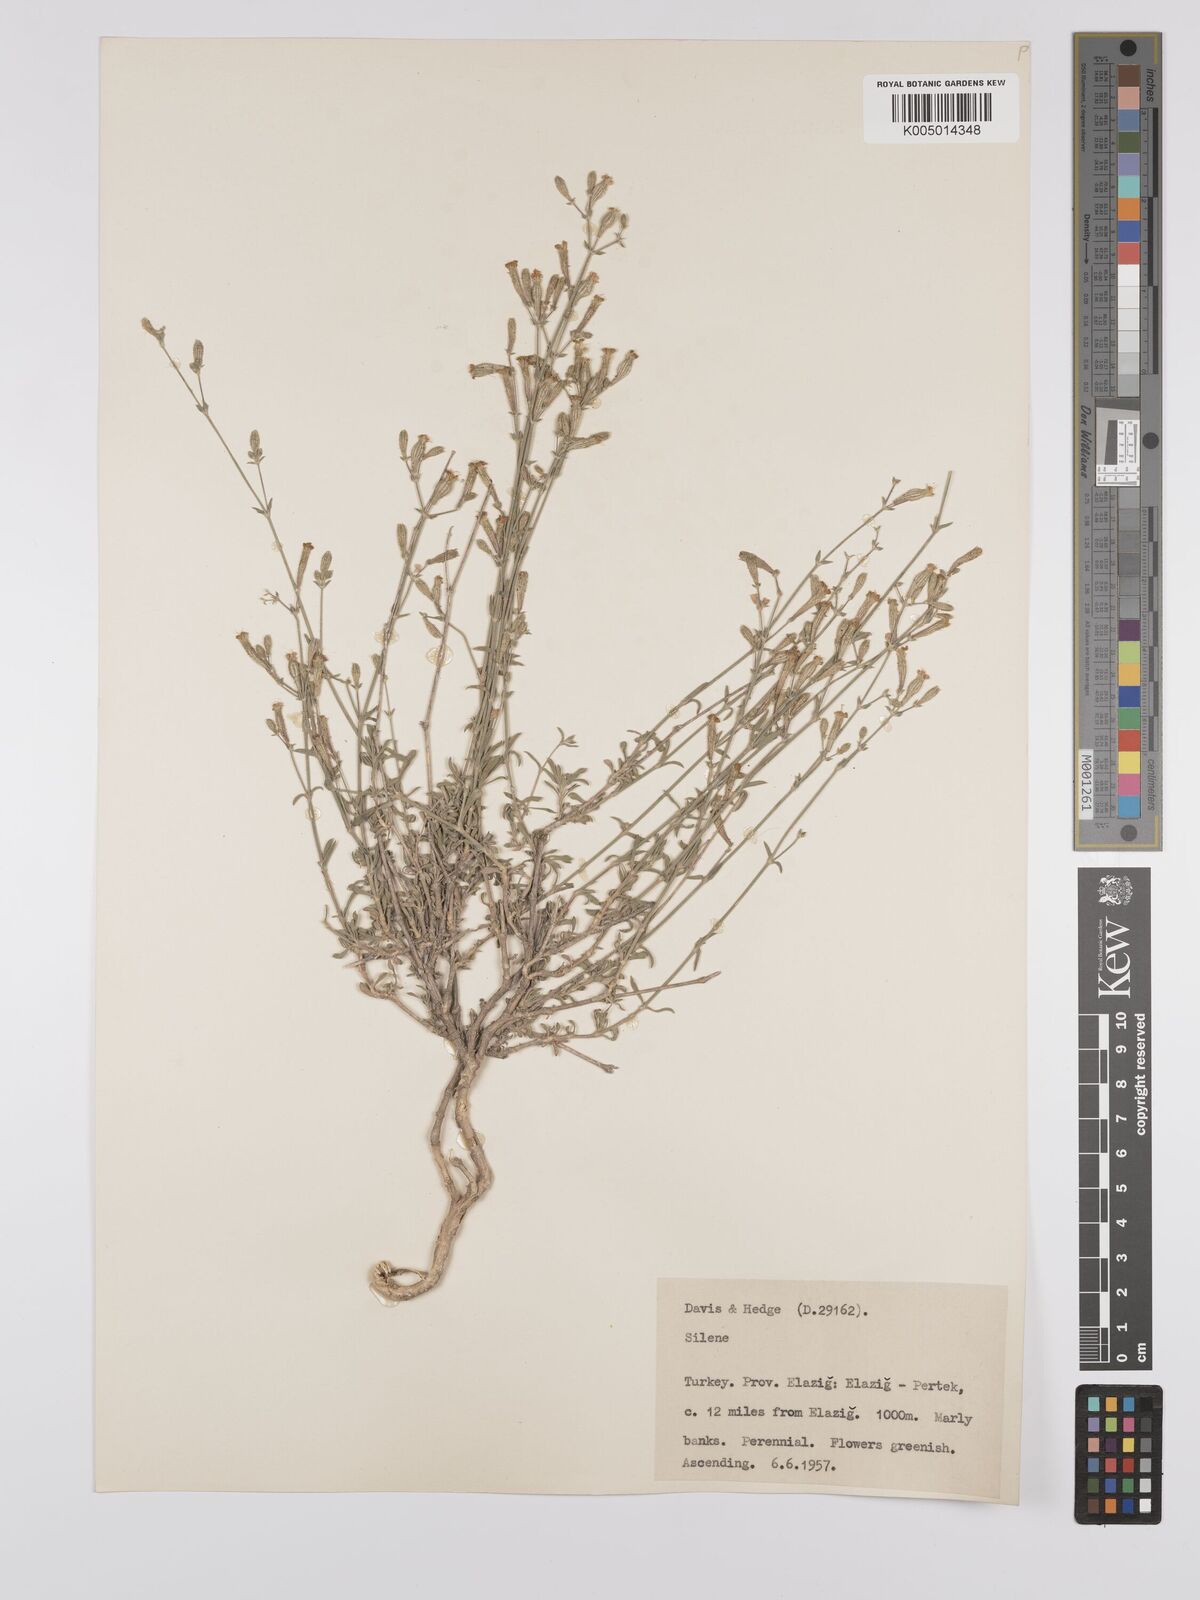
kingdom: Plantae
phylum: Tracheophyta
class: Magnoliopsida
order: Caryophyllales
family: Caryophyllaceae
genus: Silene
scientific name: Silene
